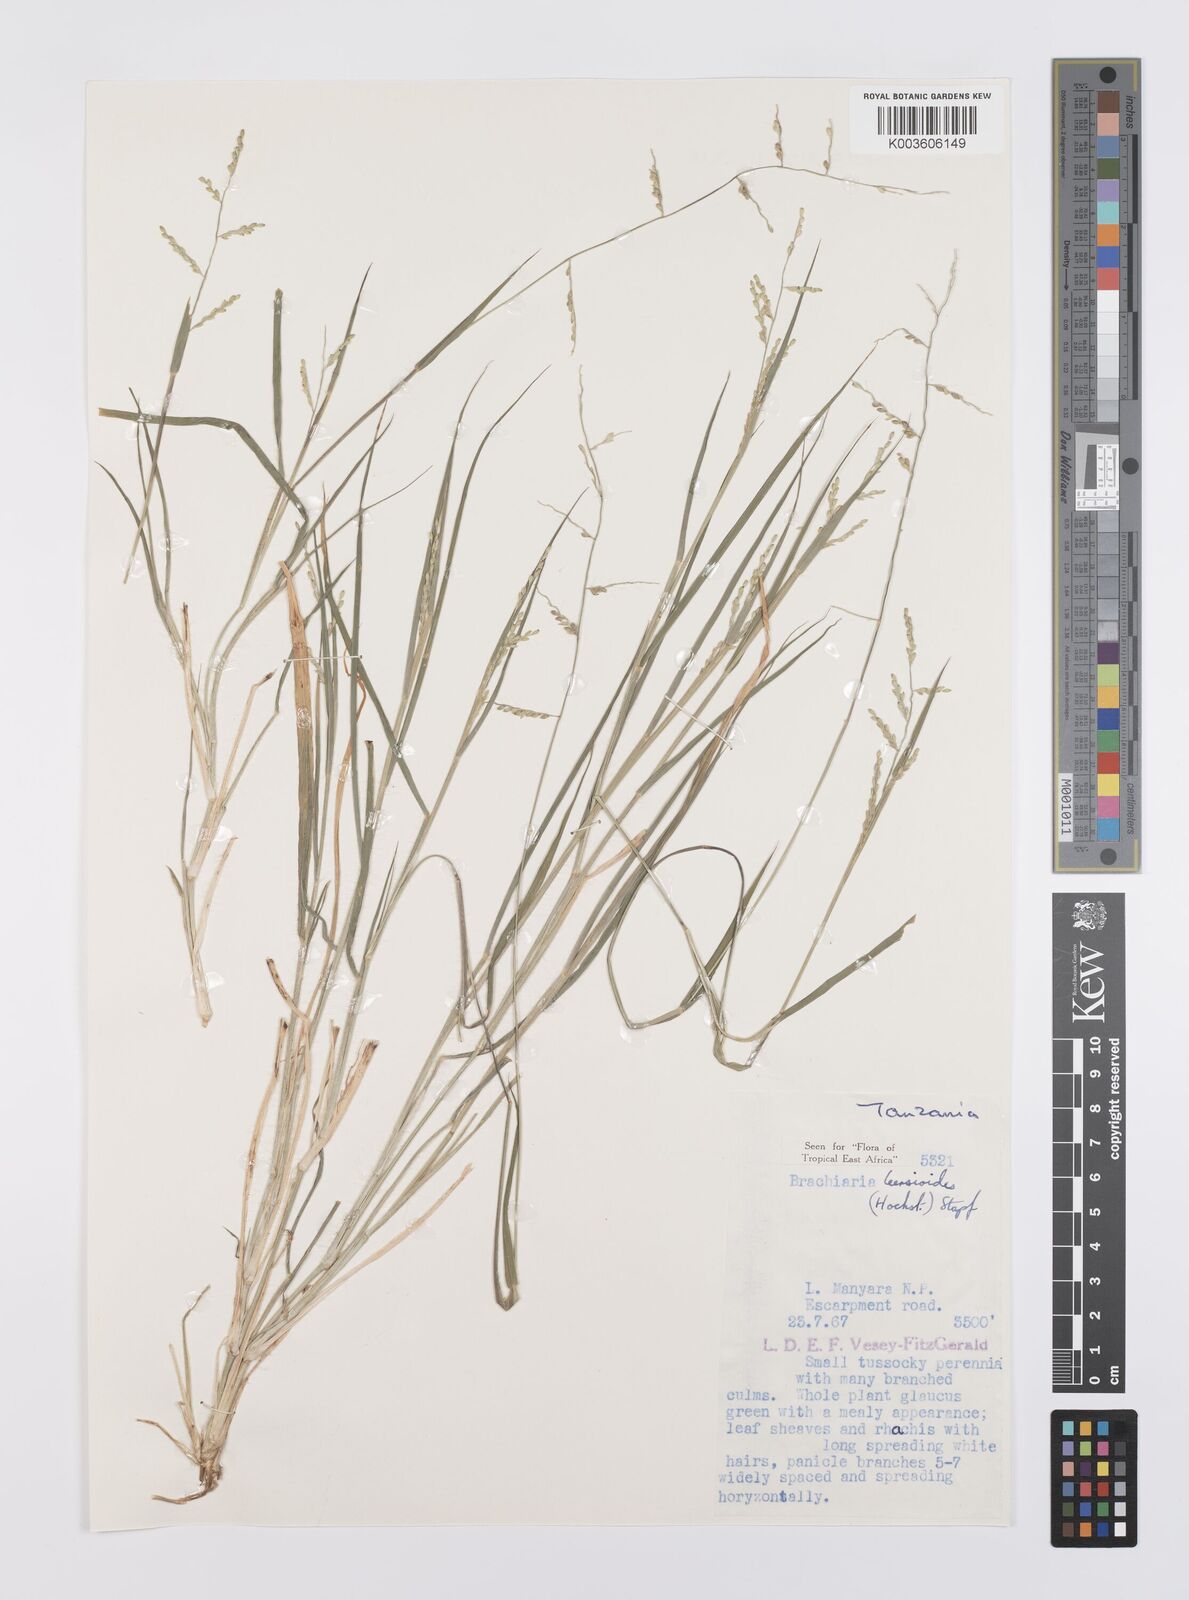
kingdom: Plantae
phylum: Tracheophyta
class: Liliopsida
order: Poales
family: Poaceae
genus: Urochloa
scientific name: Urochloa leersioides
